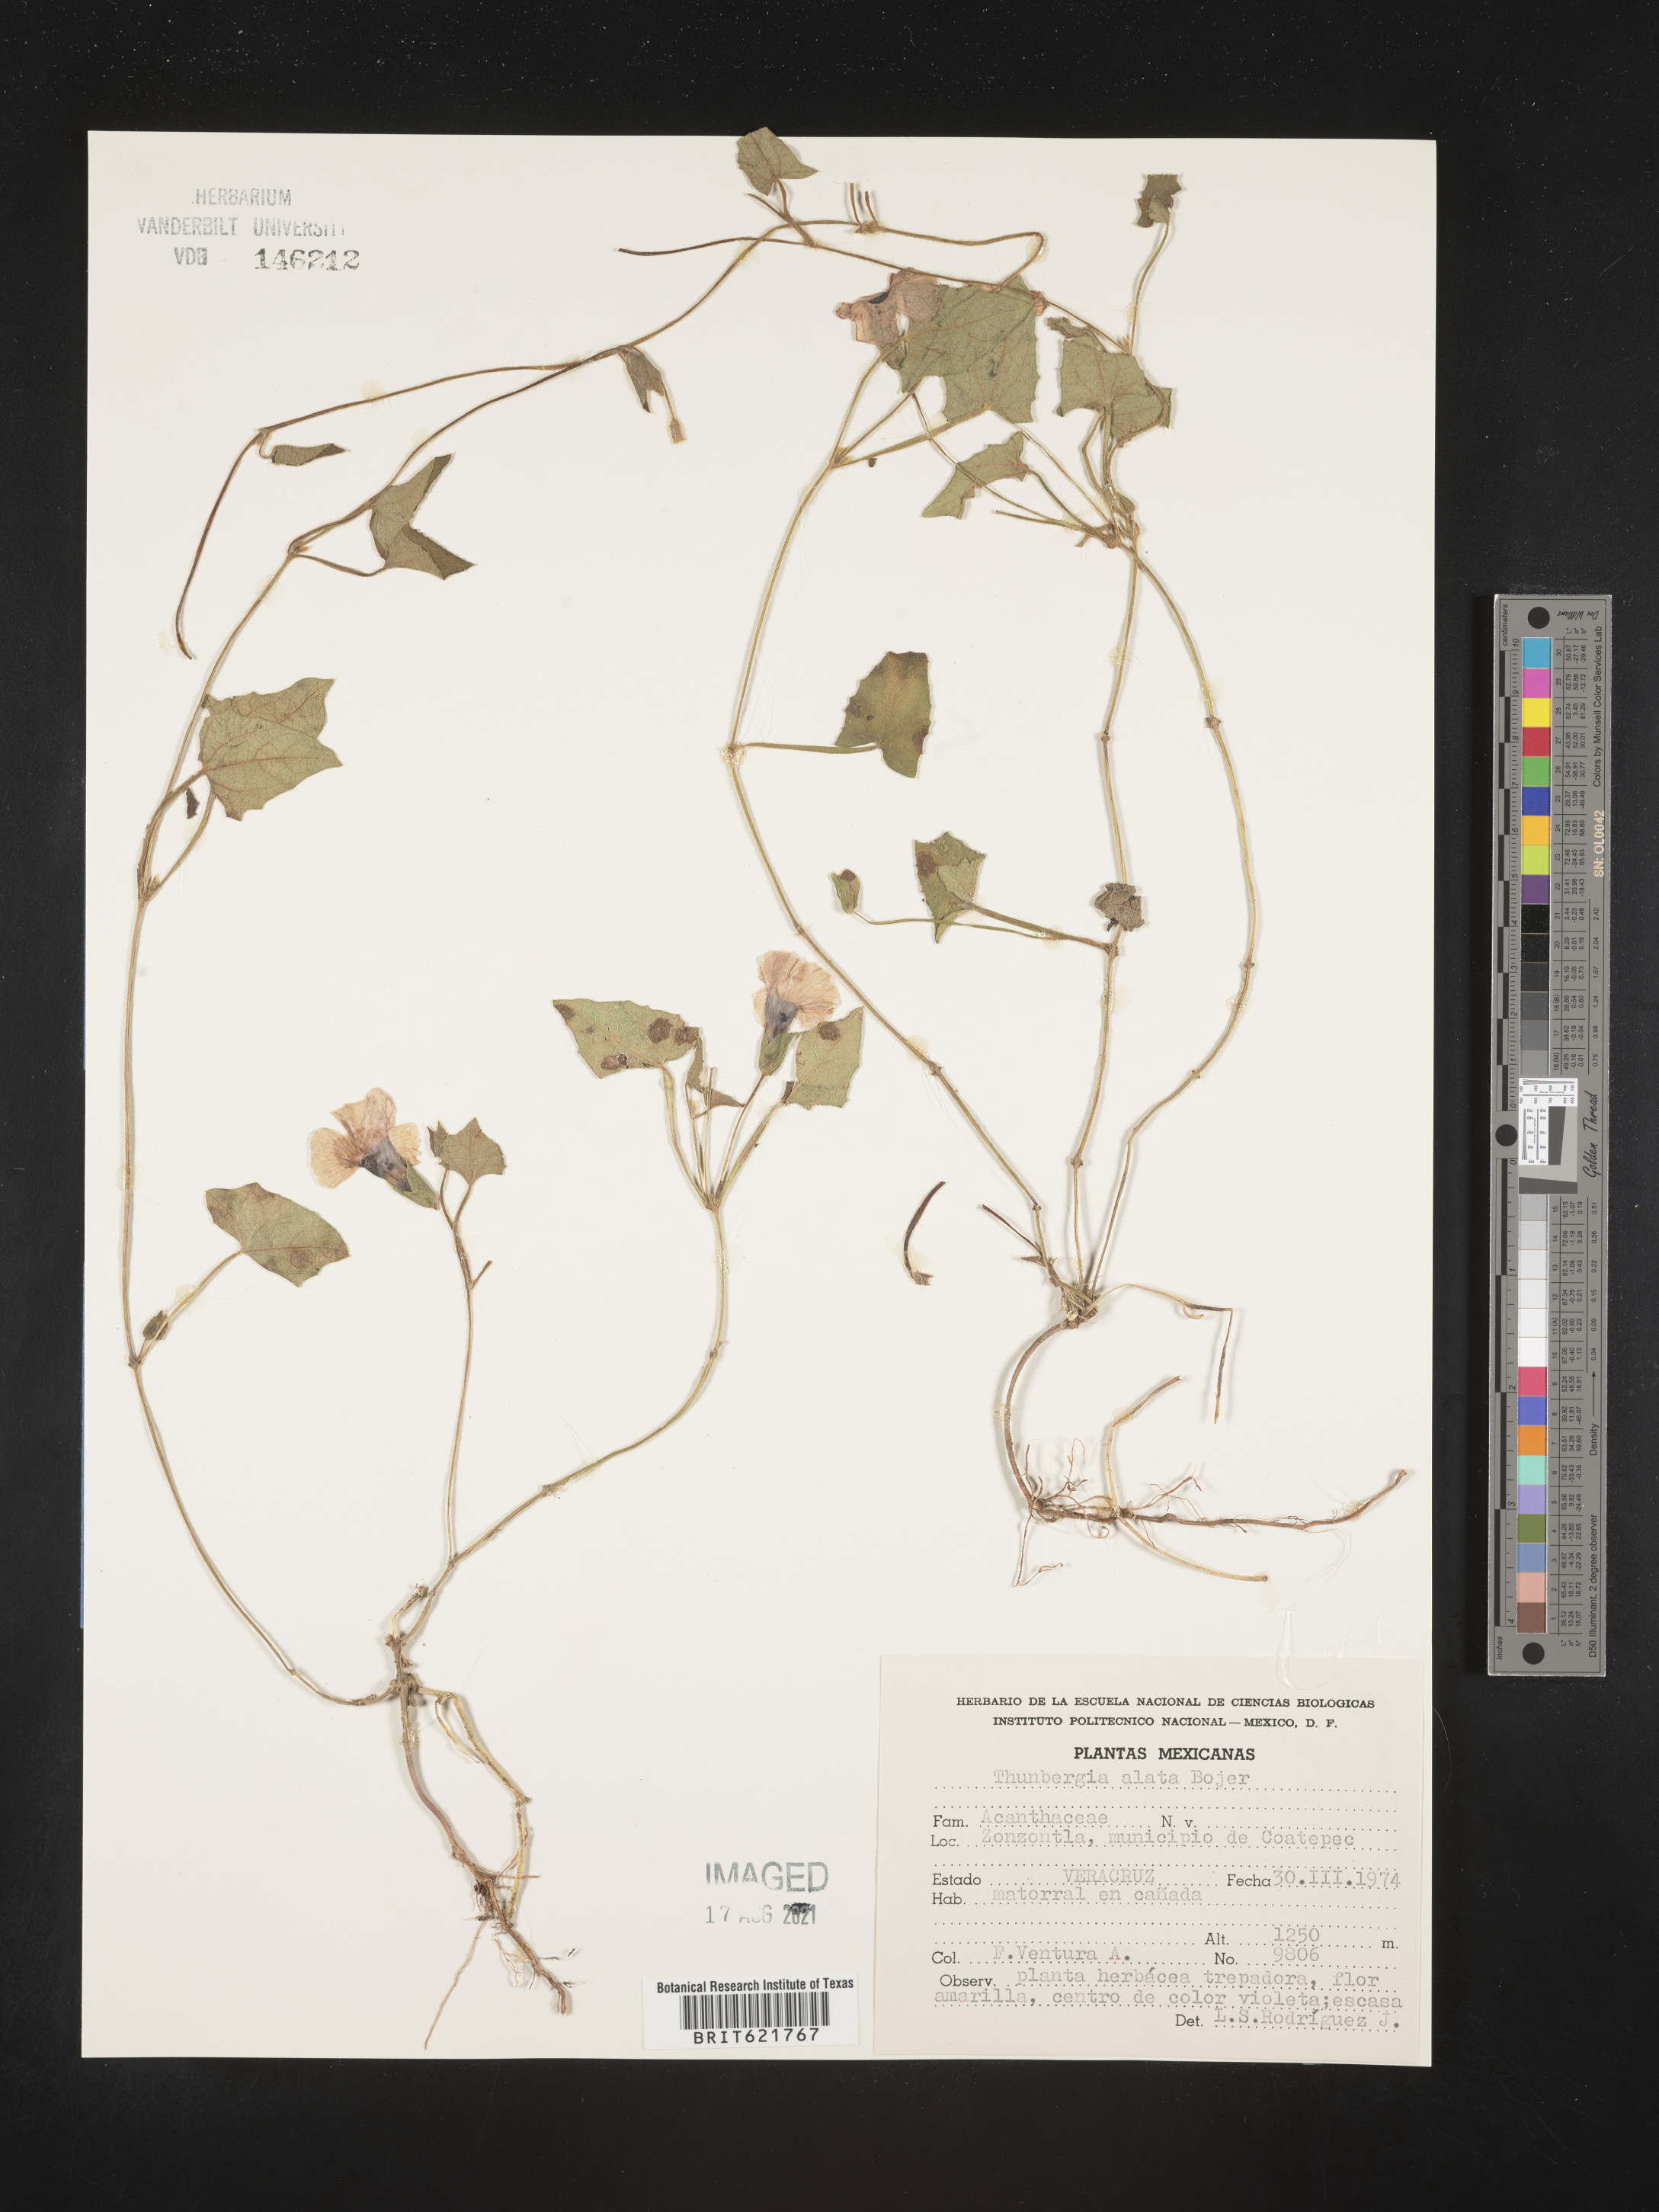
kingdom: Plantae
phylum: Tracheophyta
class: Magnoliopsida
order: Lamiales
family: Acanthaceae
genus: Thunbergia
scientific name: Thunbergia
